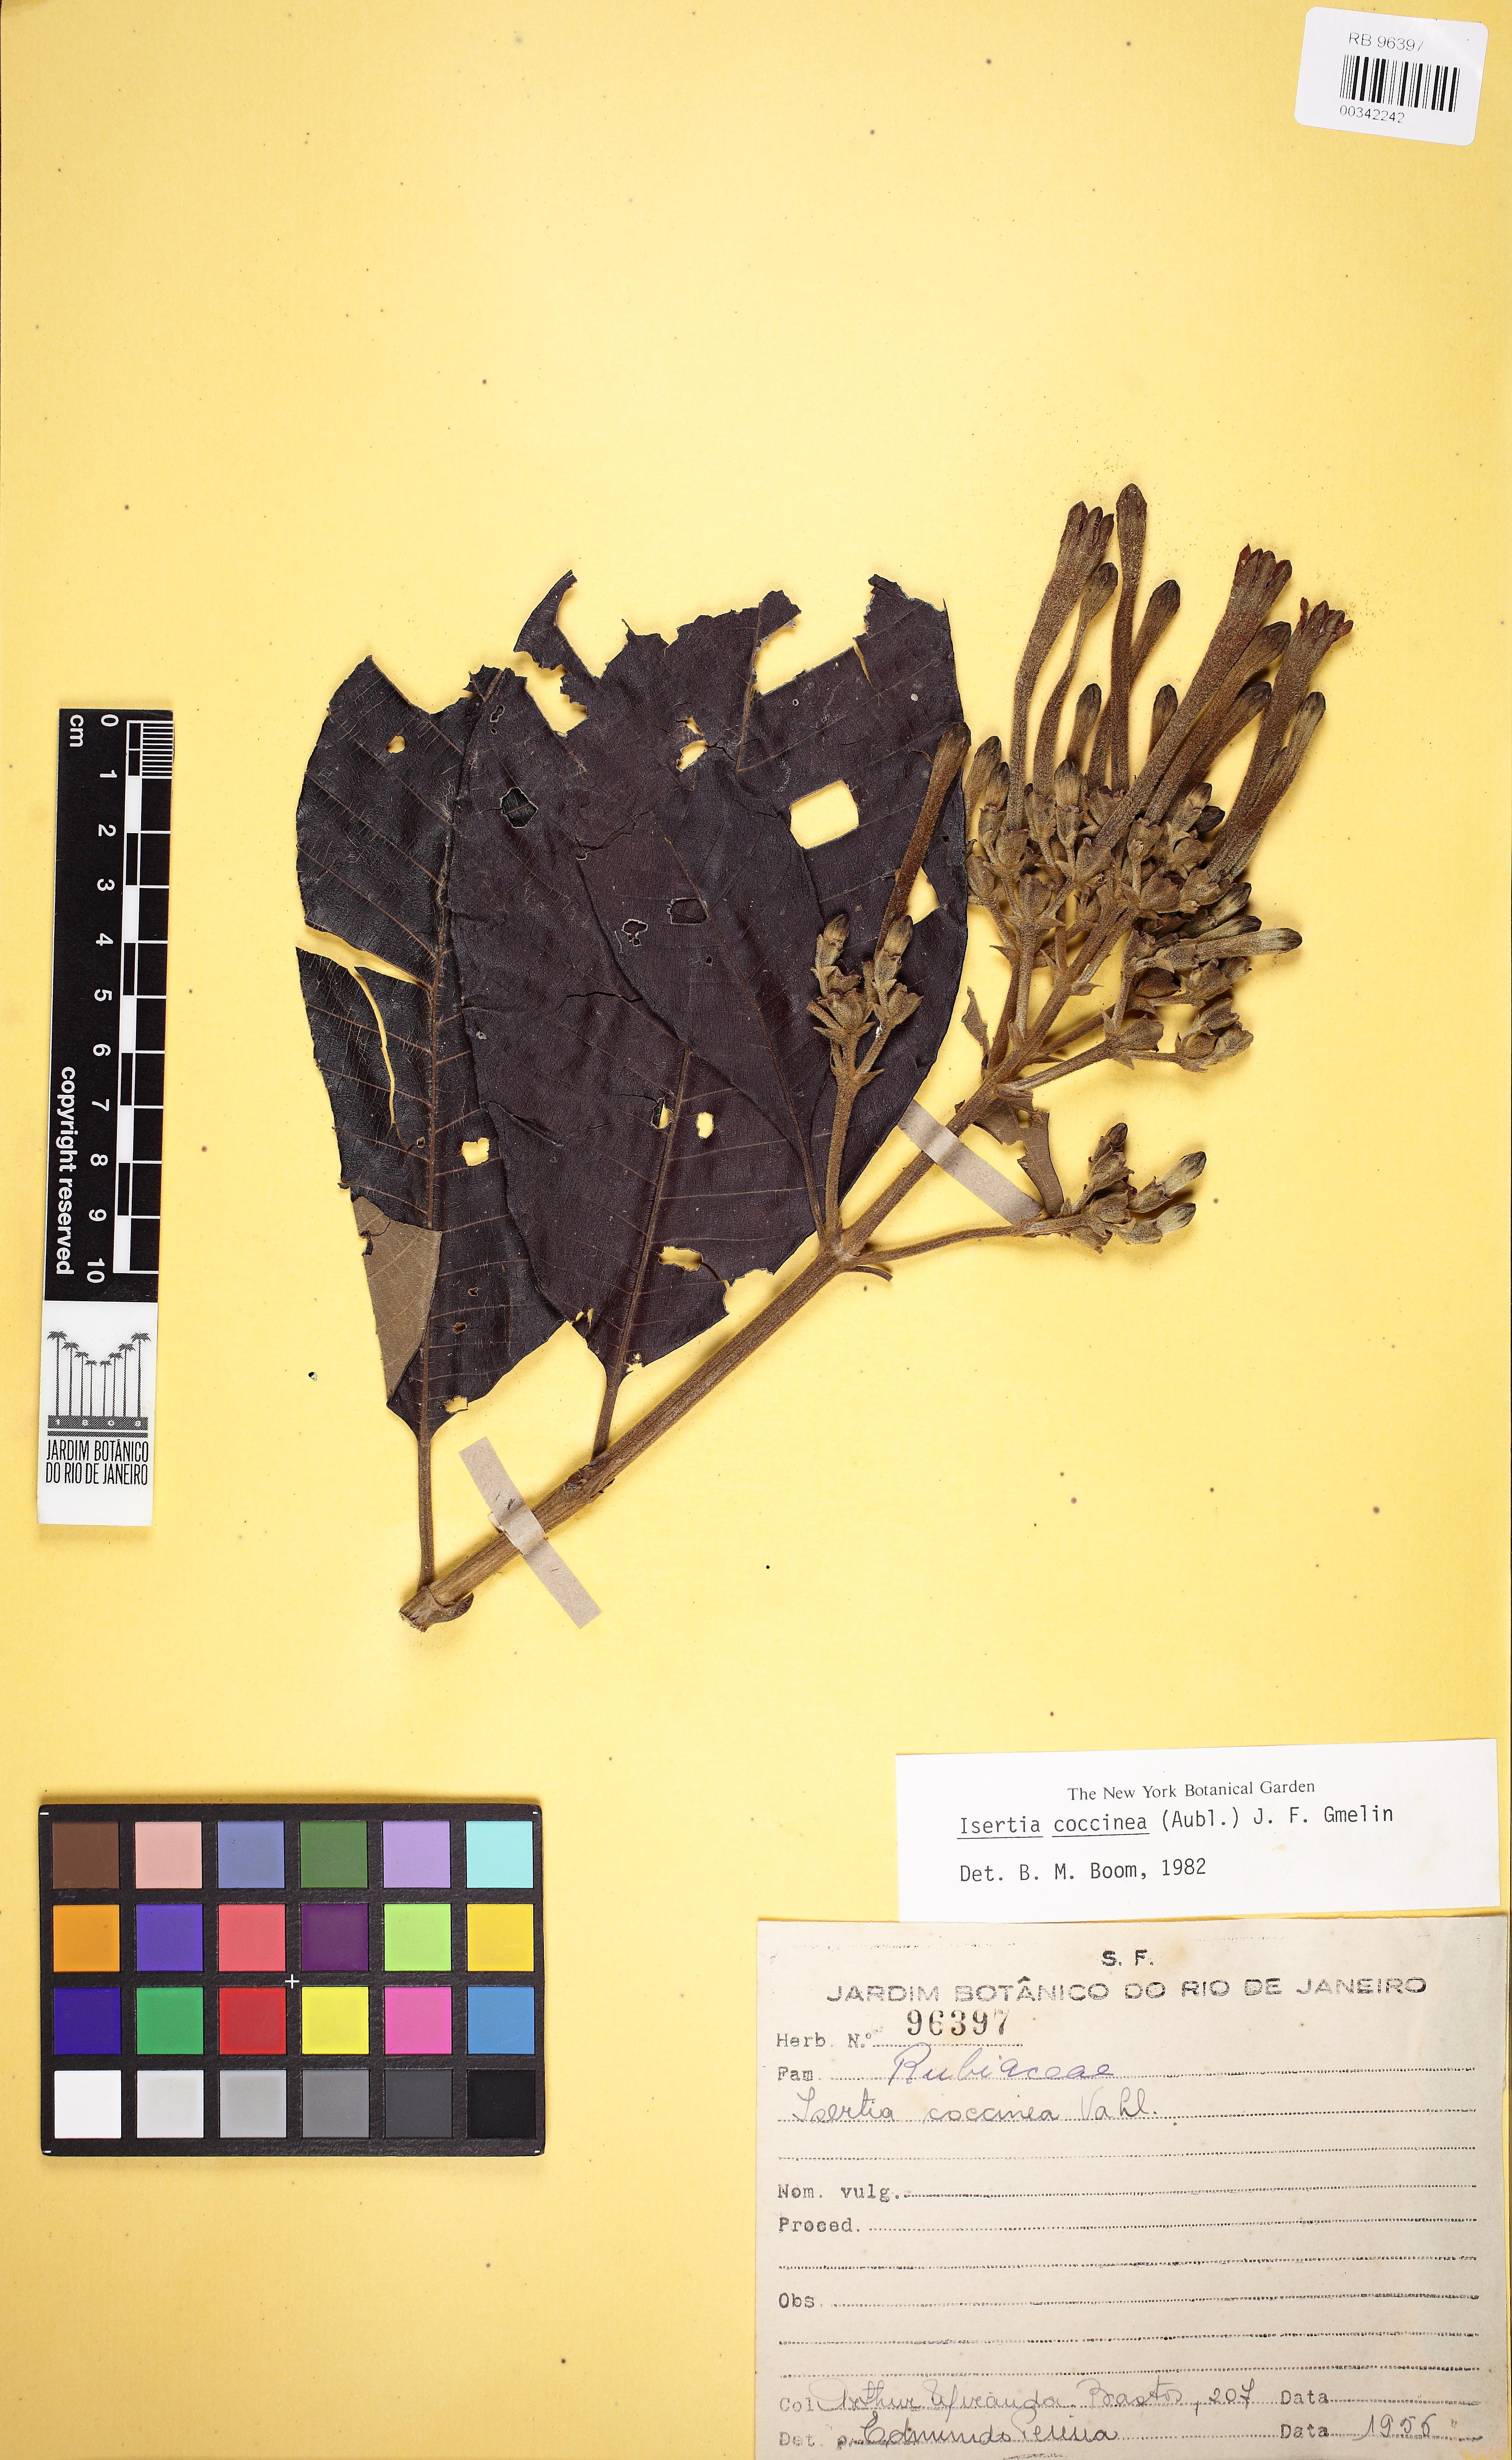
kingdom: Plantae
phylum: Tracheophyta
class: Magnoliopsida
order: Gentianales
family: Rubiaceae
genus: Isertia
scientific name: Isertia coccinea
